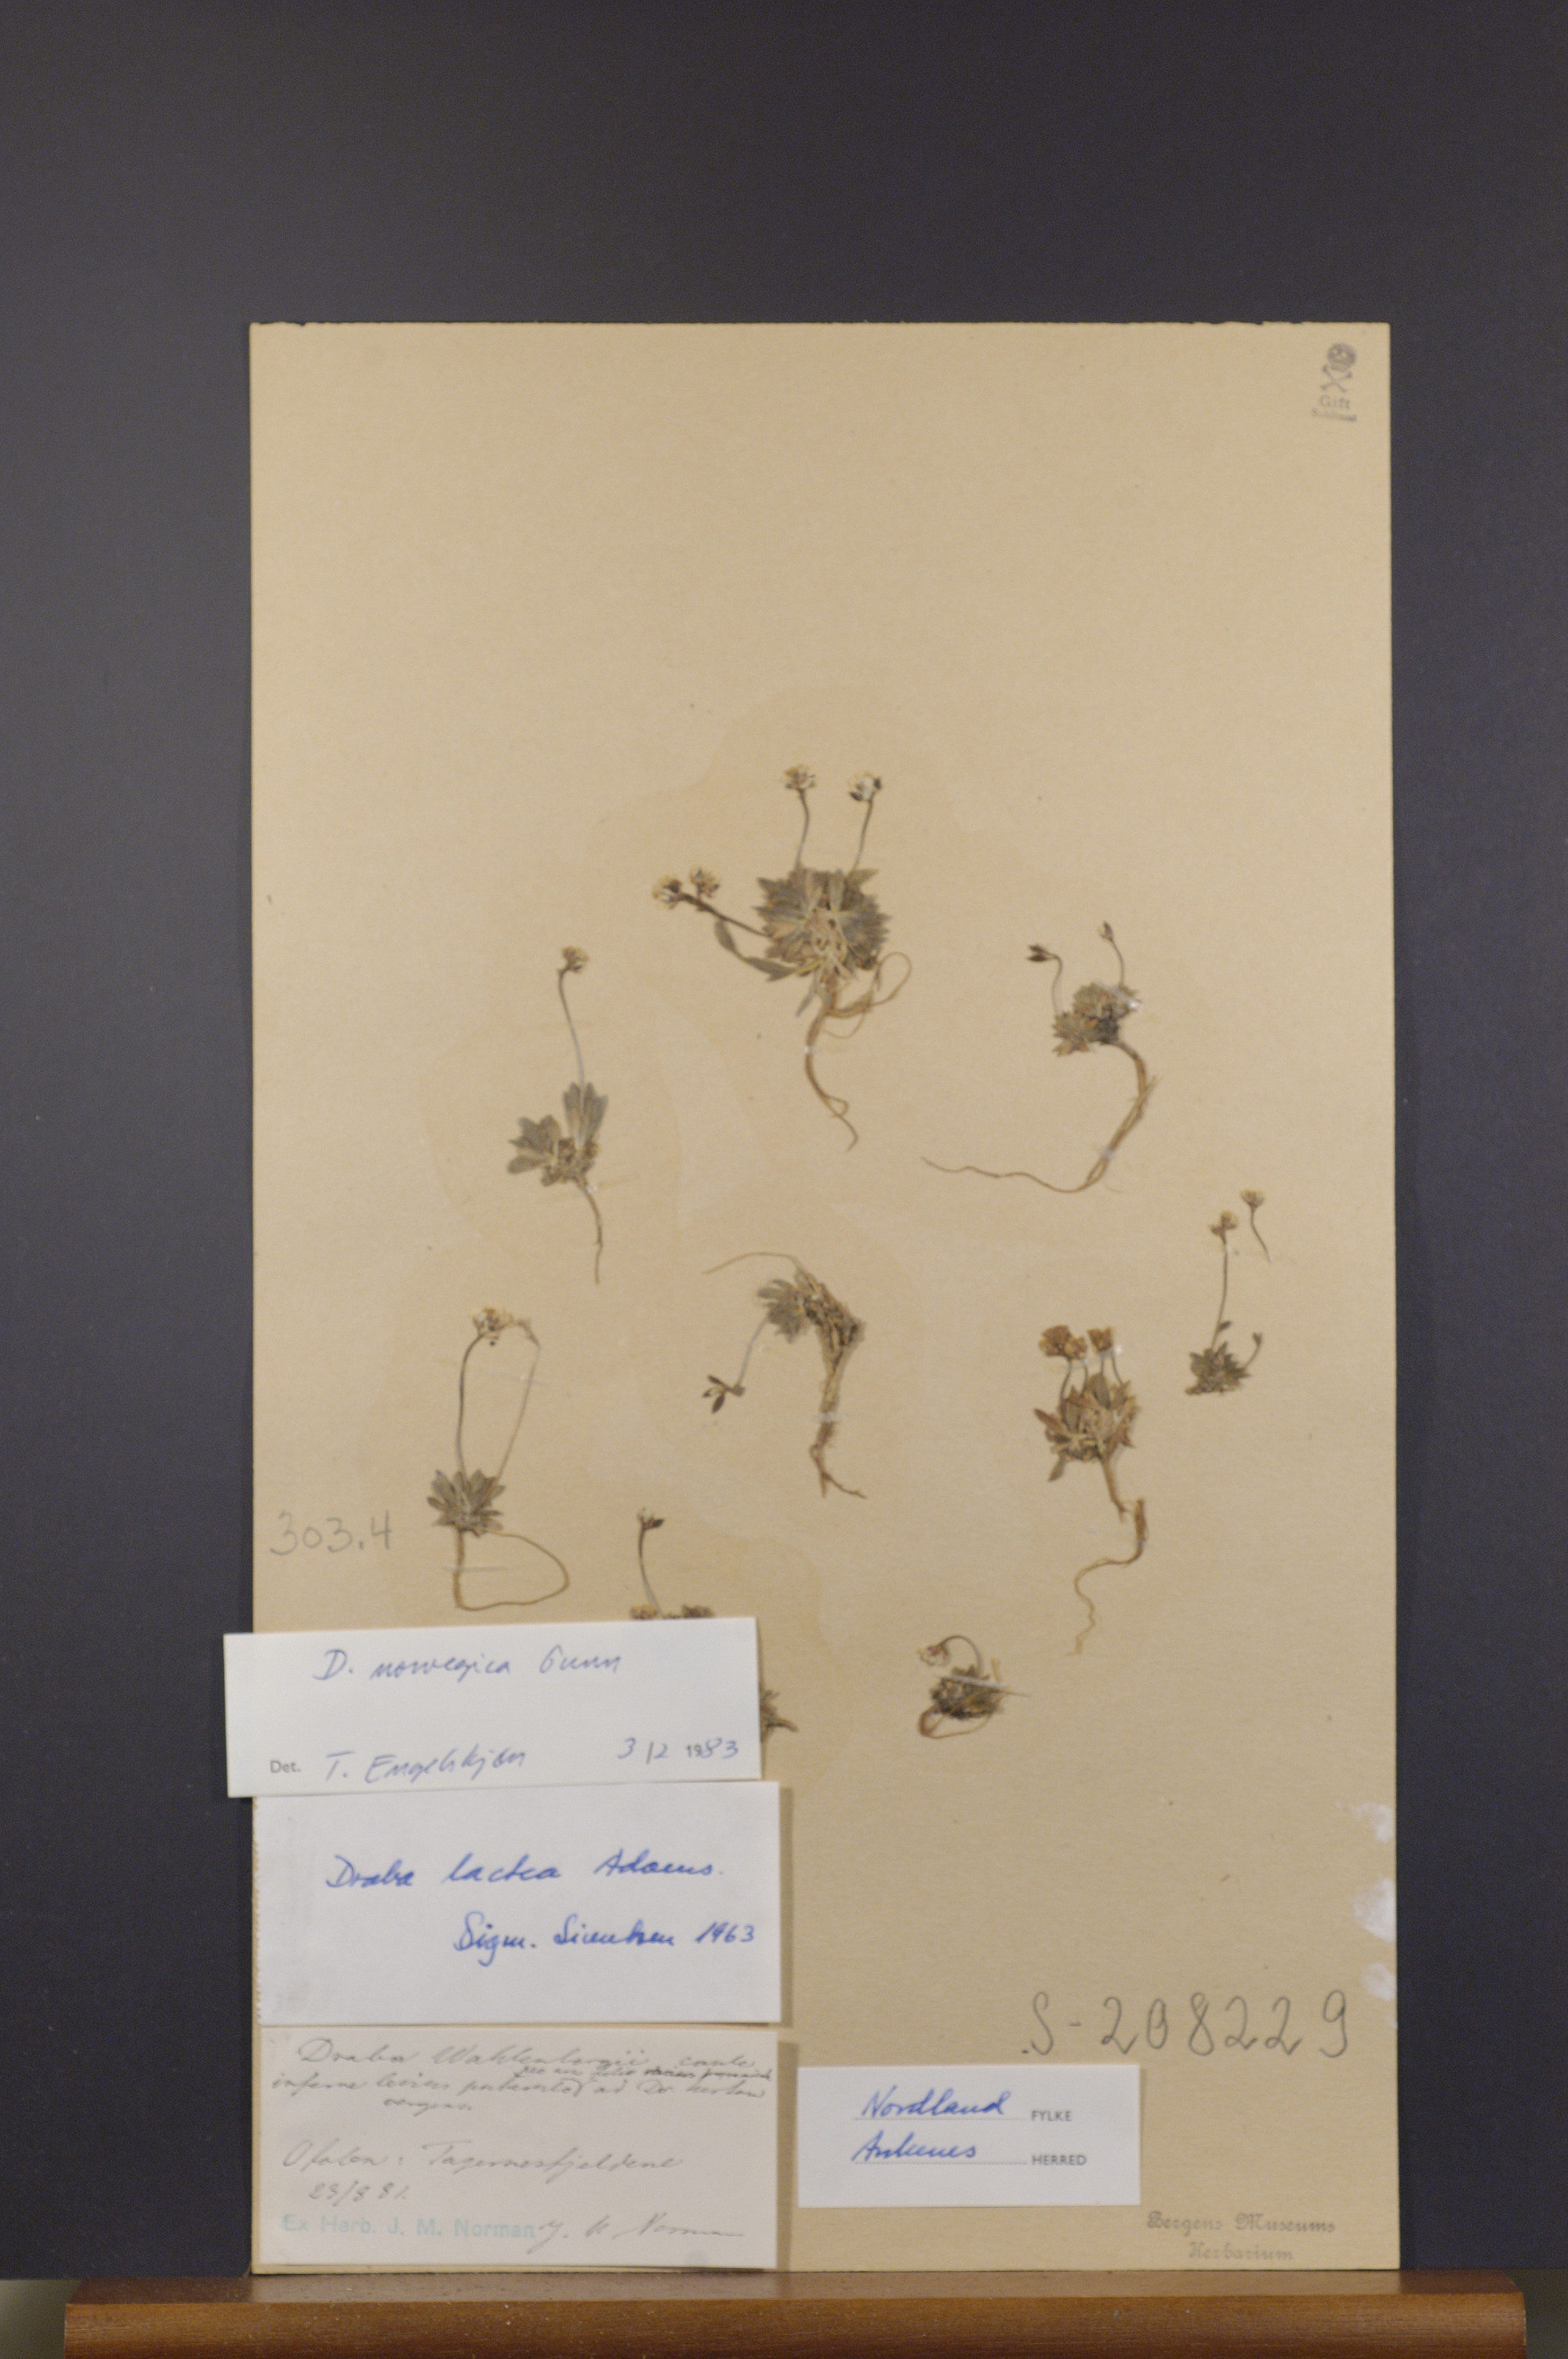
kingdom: Plantae
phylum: Tracheophyta
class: Magnoliopsida
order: Brassicales
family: Brassicaceae
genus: Draba
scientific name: Draba norvegica
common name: Rock whitlowgrass
